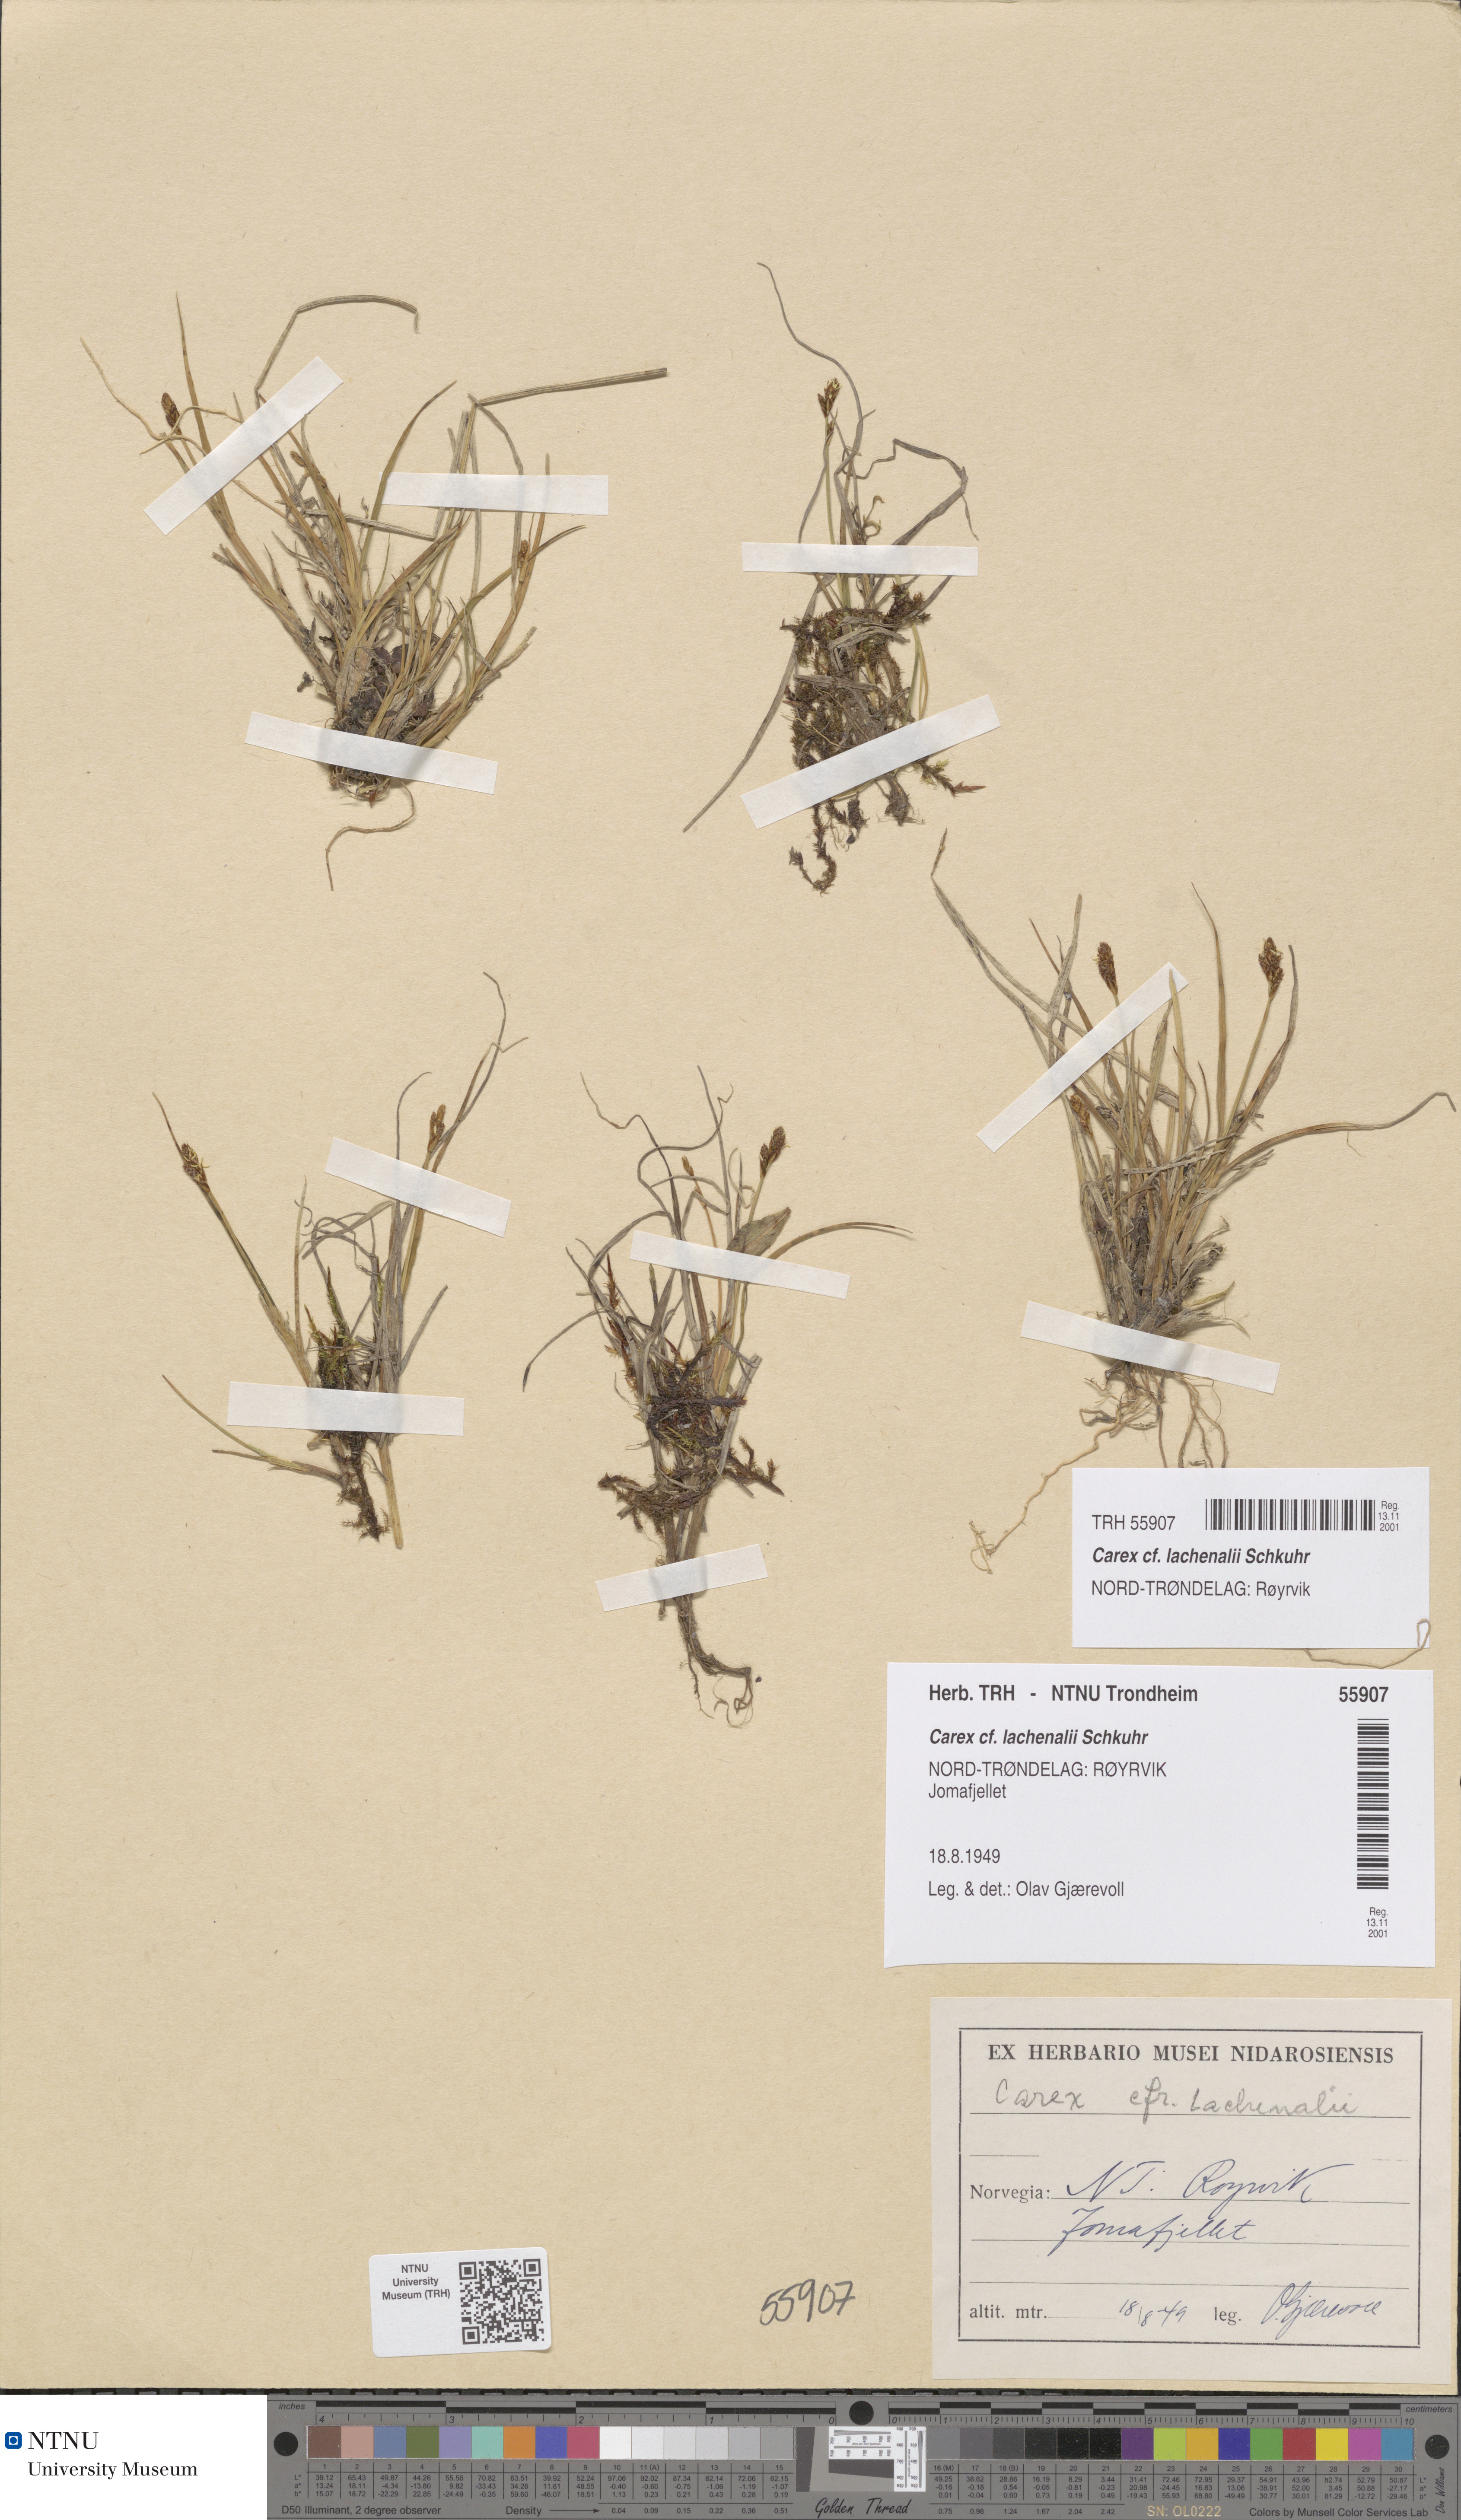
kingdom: Plantae
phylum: Tracheophyta
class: Liliopsida
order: Poales
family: Cyperaceae
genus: Carex
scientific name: Carex lachenalii
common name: Hare's-foot sedge
